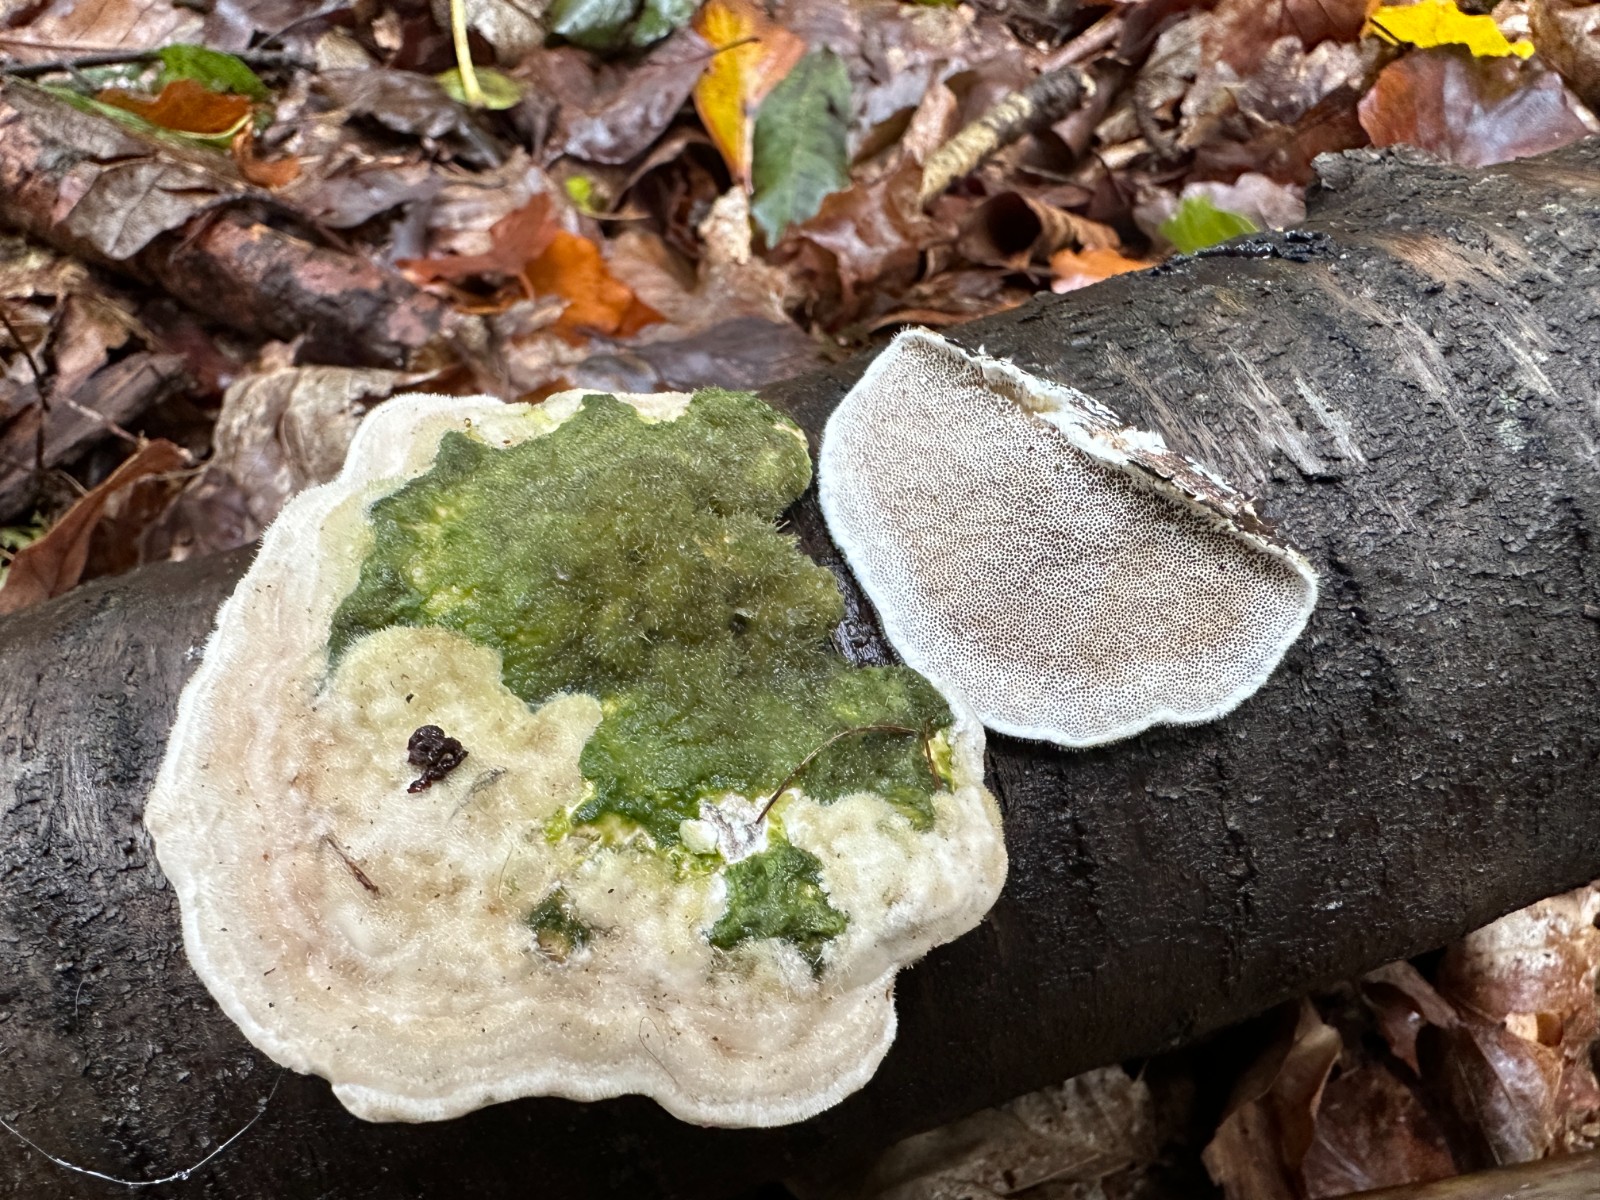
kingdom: Fungi
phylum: Basidiomycota
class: Agaricomycetes
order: Polyporales
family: Polyporaceae
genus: Trametes
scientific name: Trametes hirsuta
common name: håret læderporesvamp
